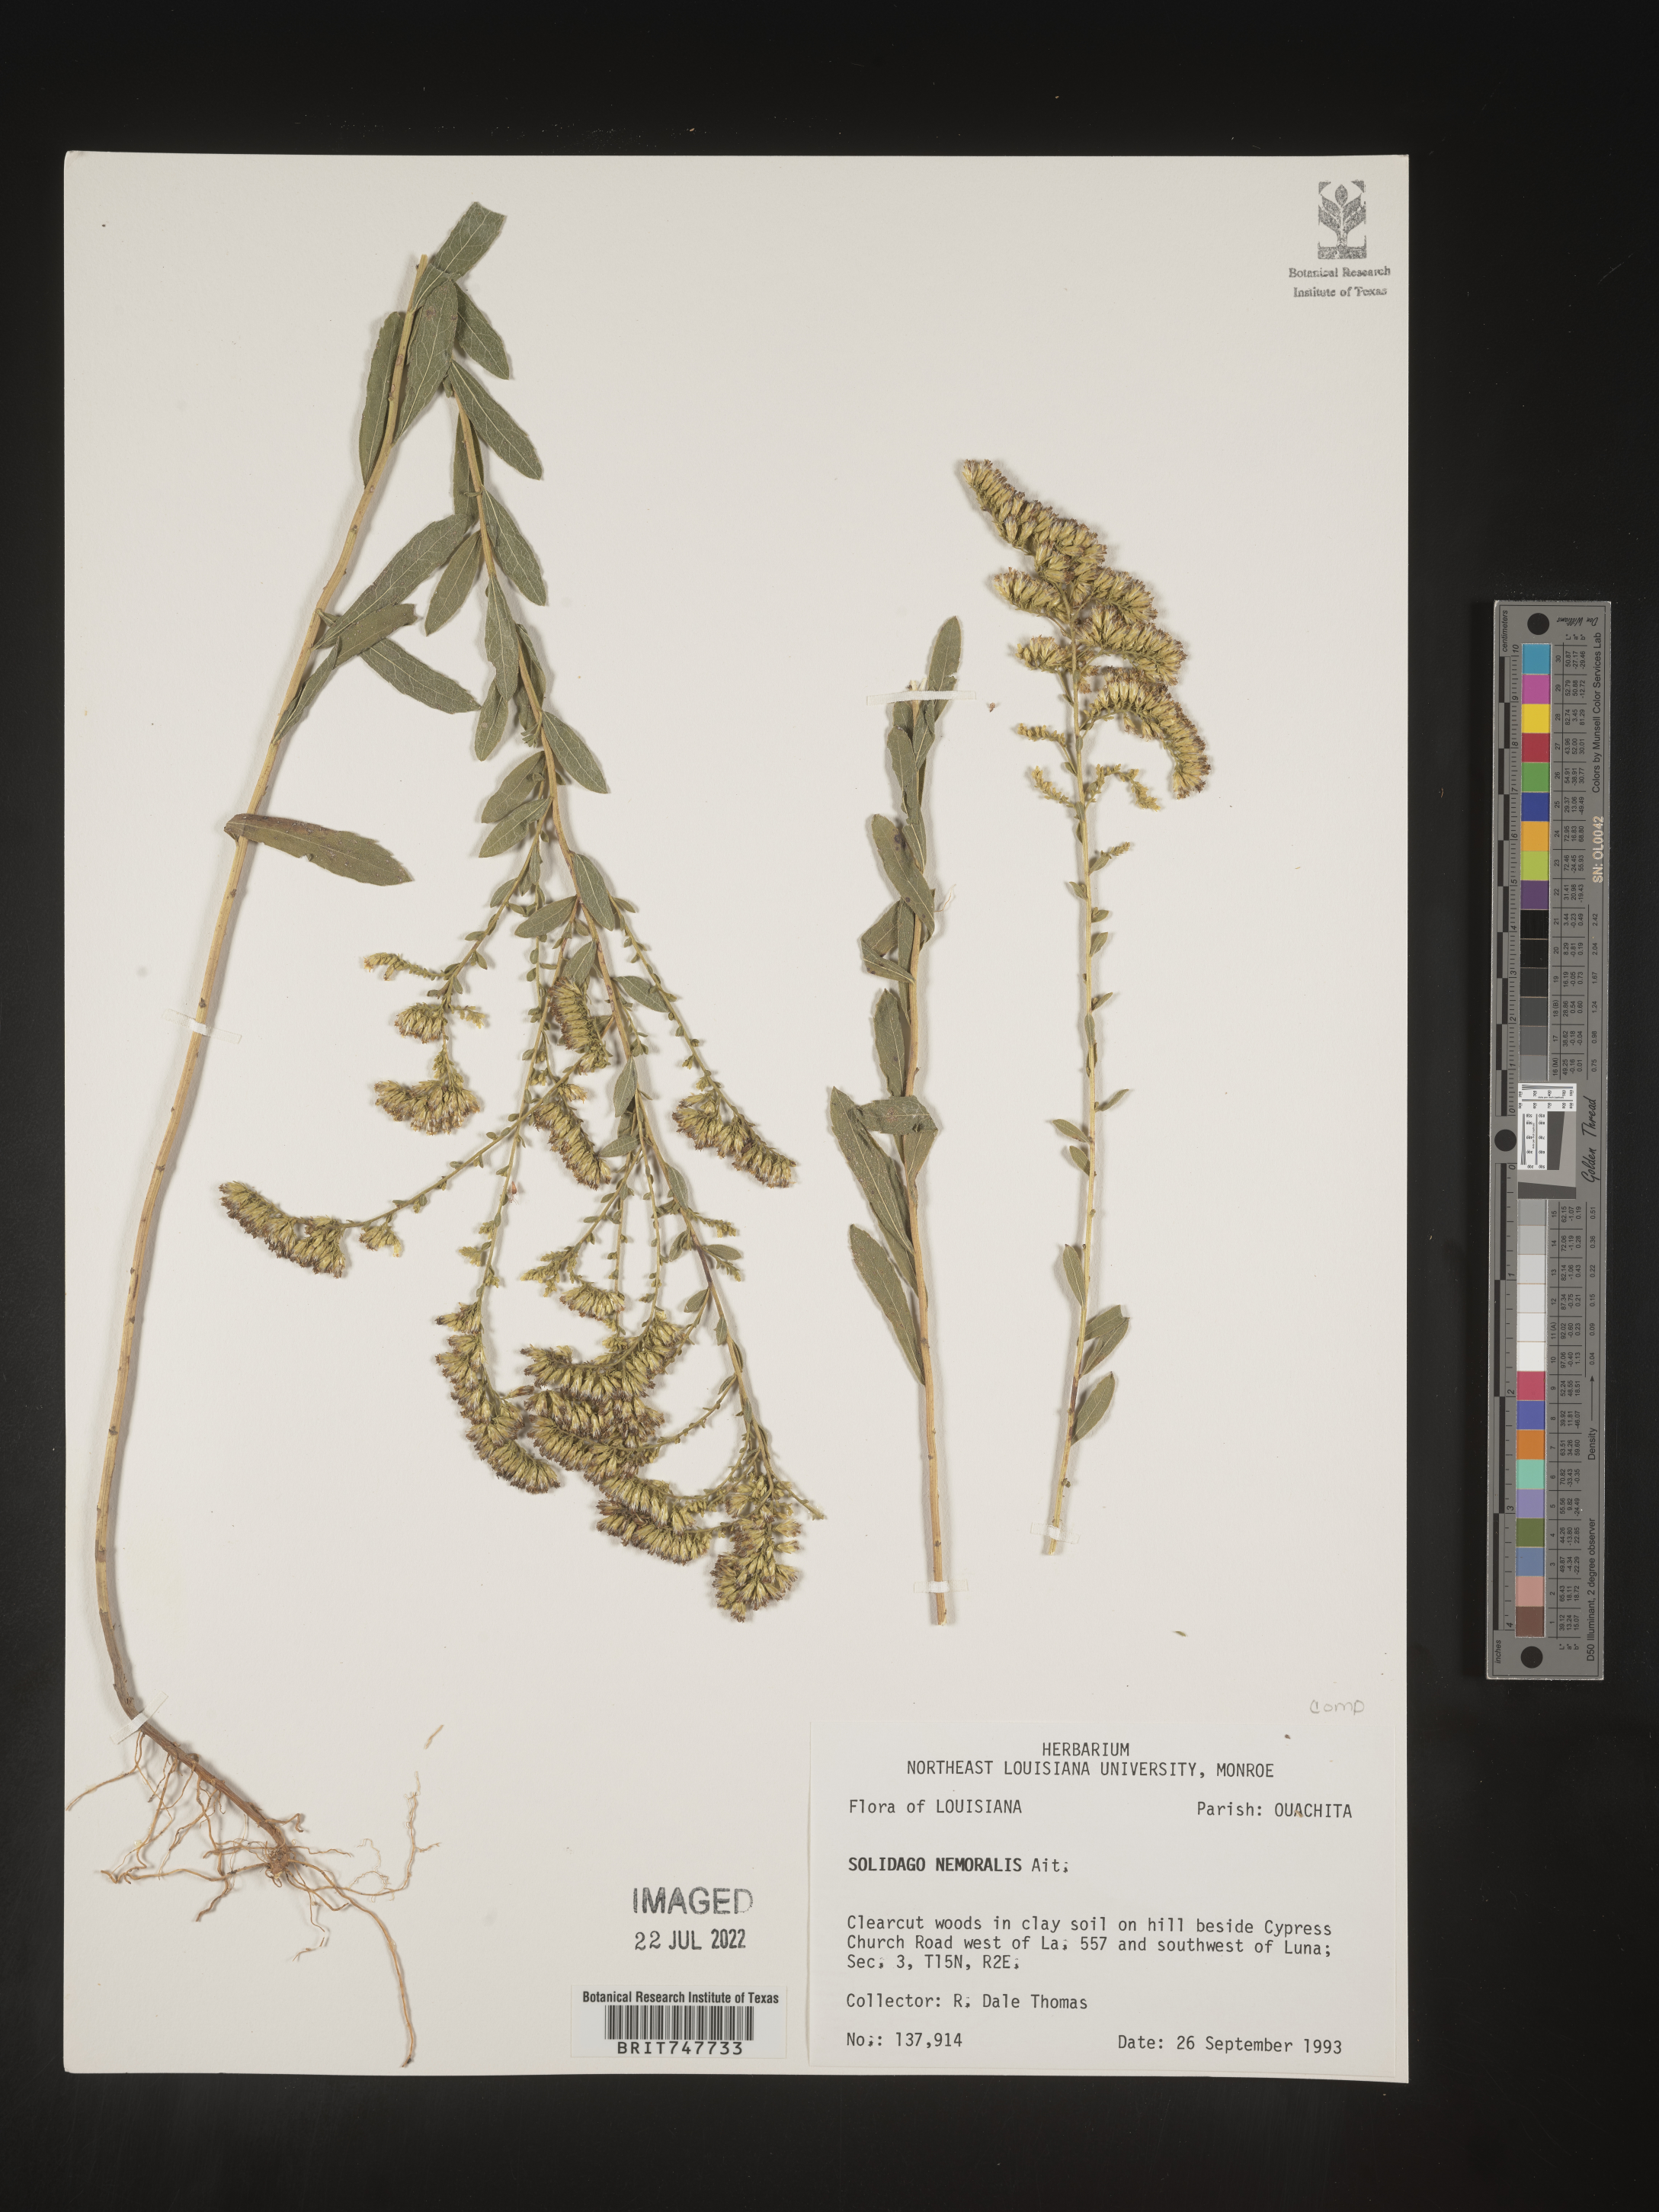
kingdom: Plantae
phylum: Tracheophyta
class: Magnoliopsida
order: Asterales
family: Asteraceae
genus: Solidago
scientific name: Solidago nemoralis
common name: Grey goldenrod
